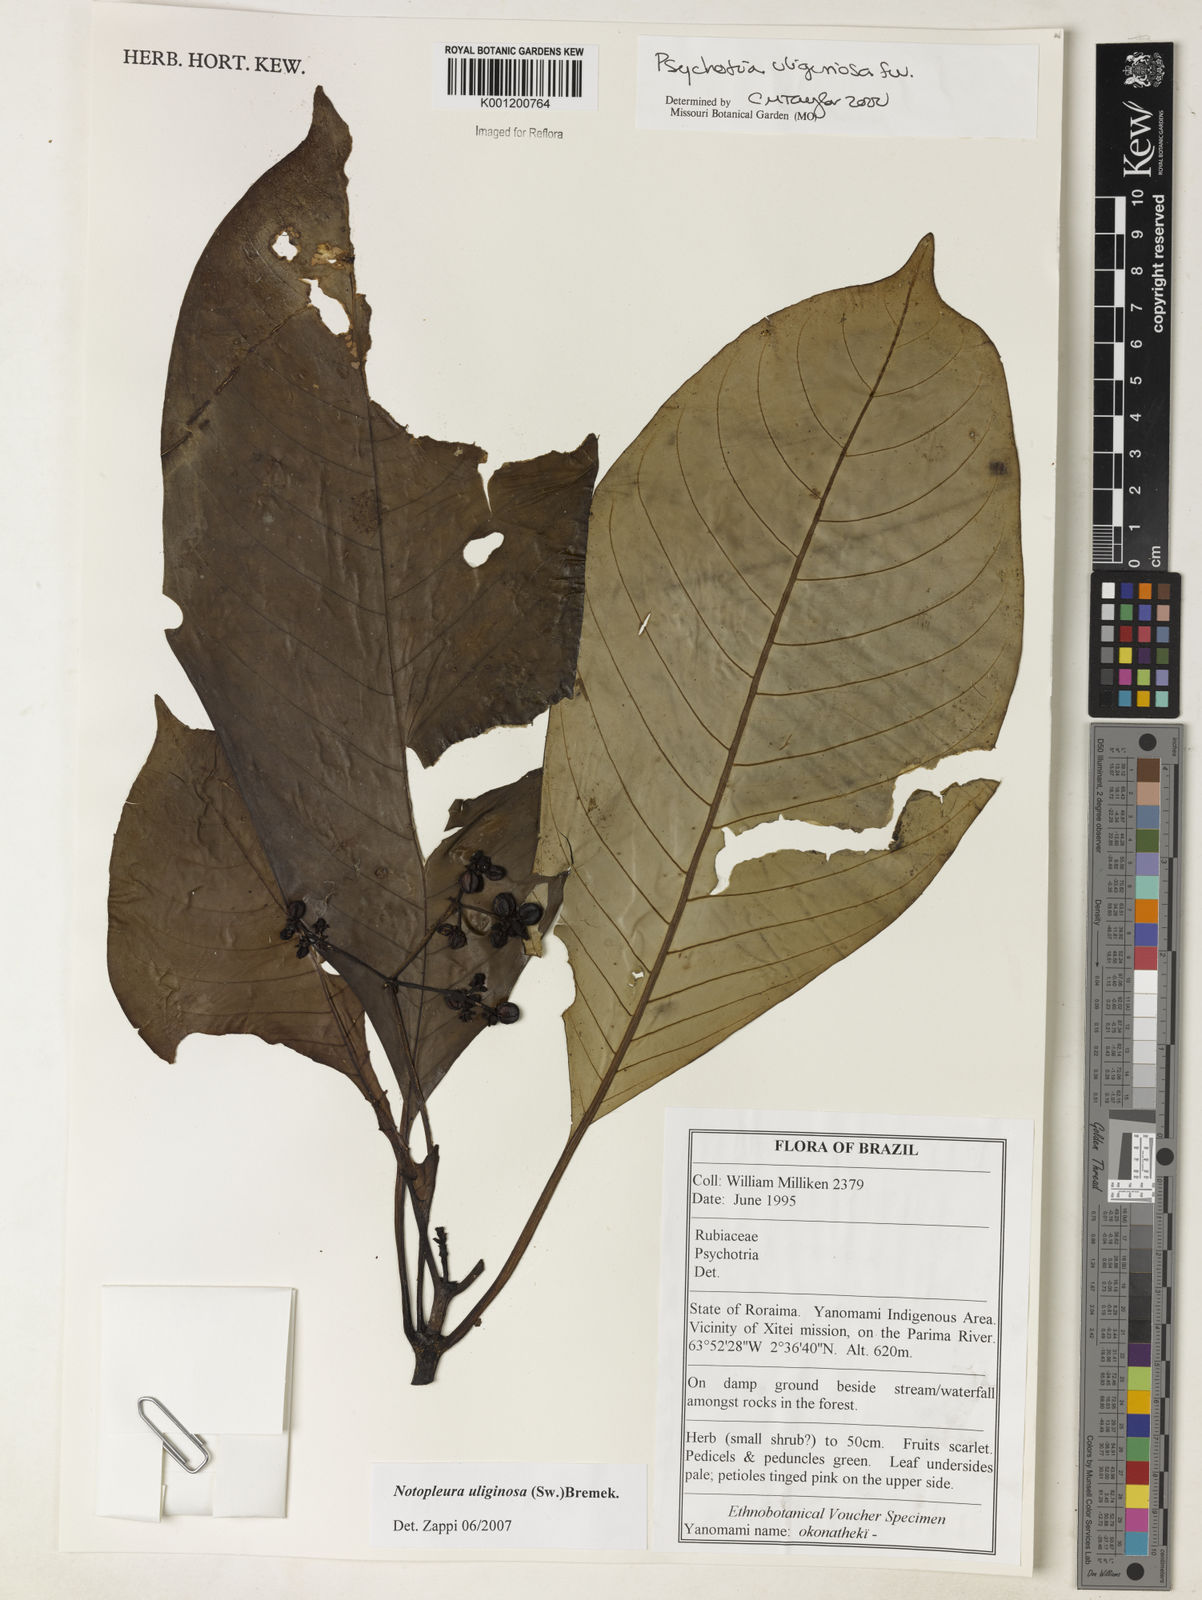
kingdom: Plantae
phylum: Tracheophyta
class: Magnoliopsida
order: Gentianales
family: Rubiaceae
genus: Notopleura
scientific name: Notopleura uliginosa
